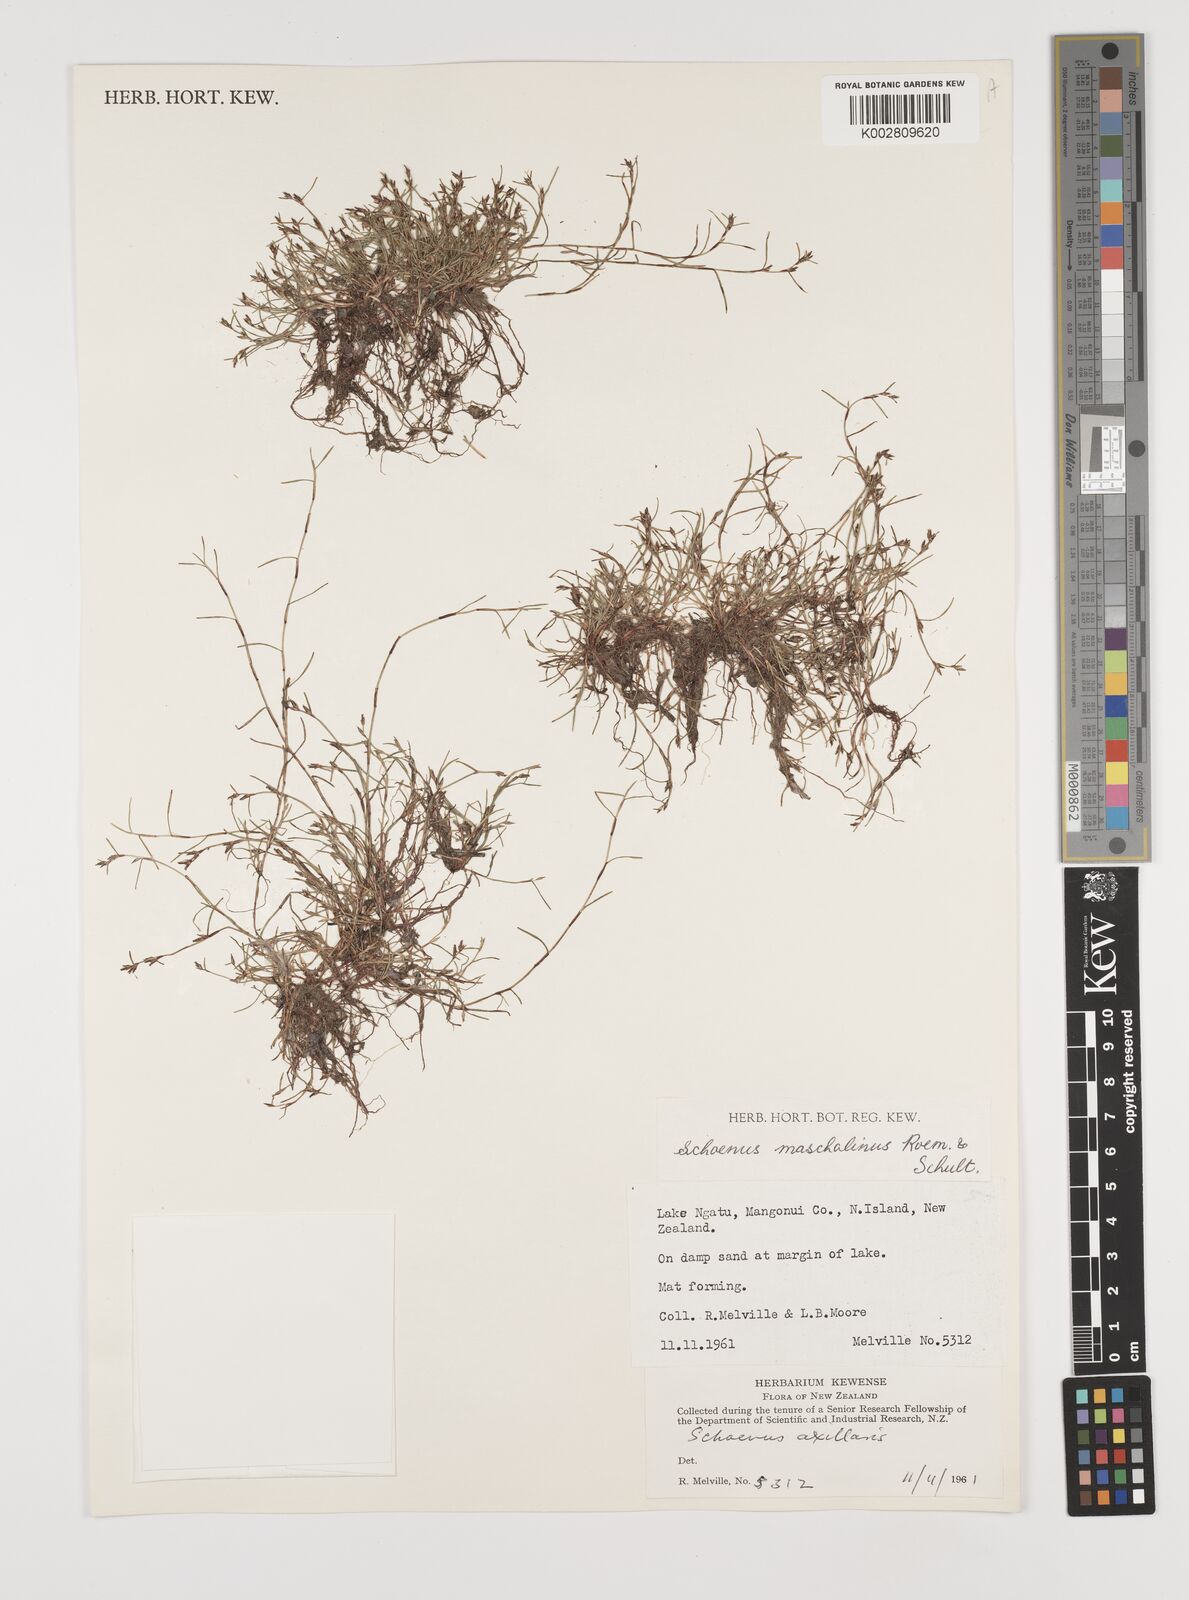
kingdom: Plantae
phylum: Tracheophyta
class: Liliopsida
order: Poales
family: Cyperaceae
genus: Schoenus
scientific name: Schoenus maschalinus
